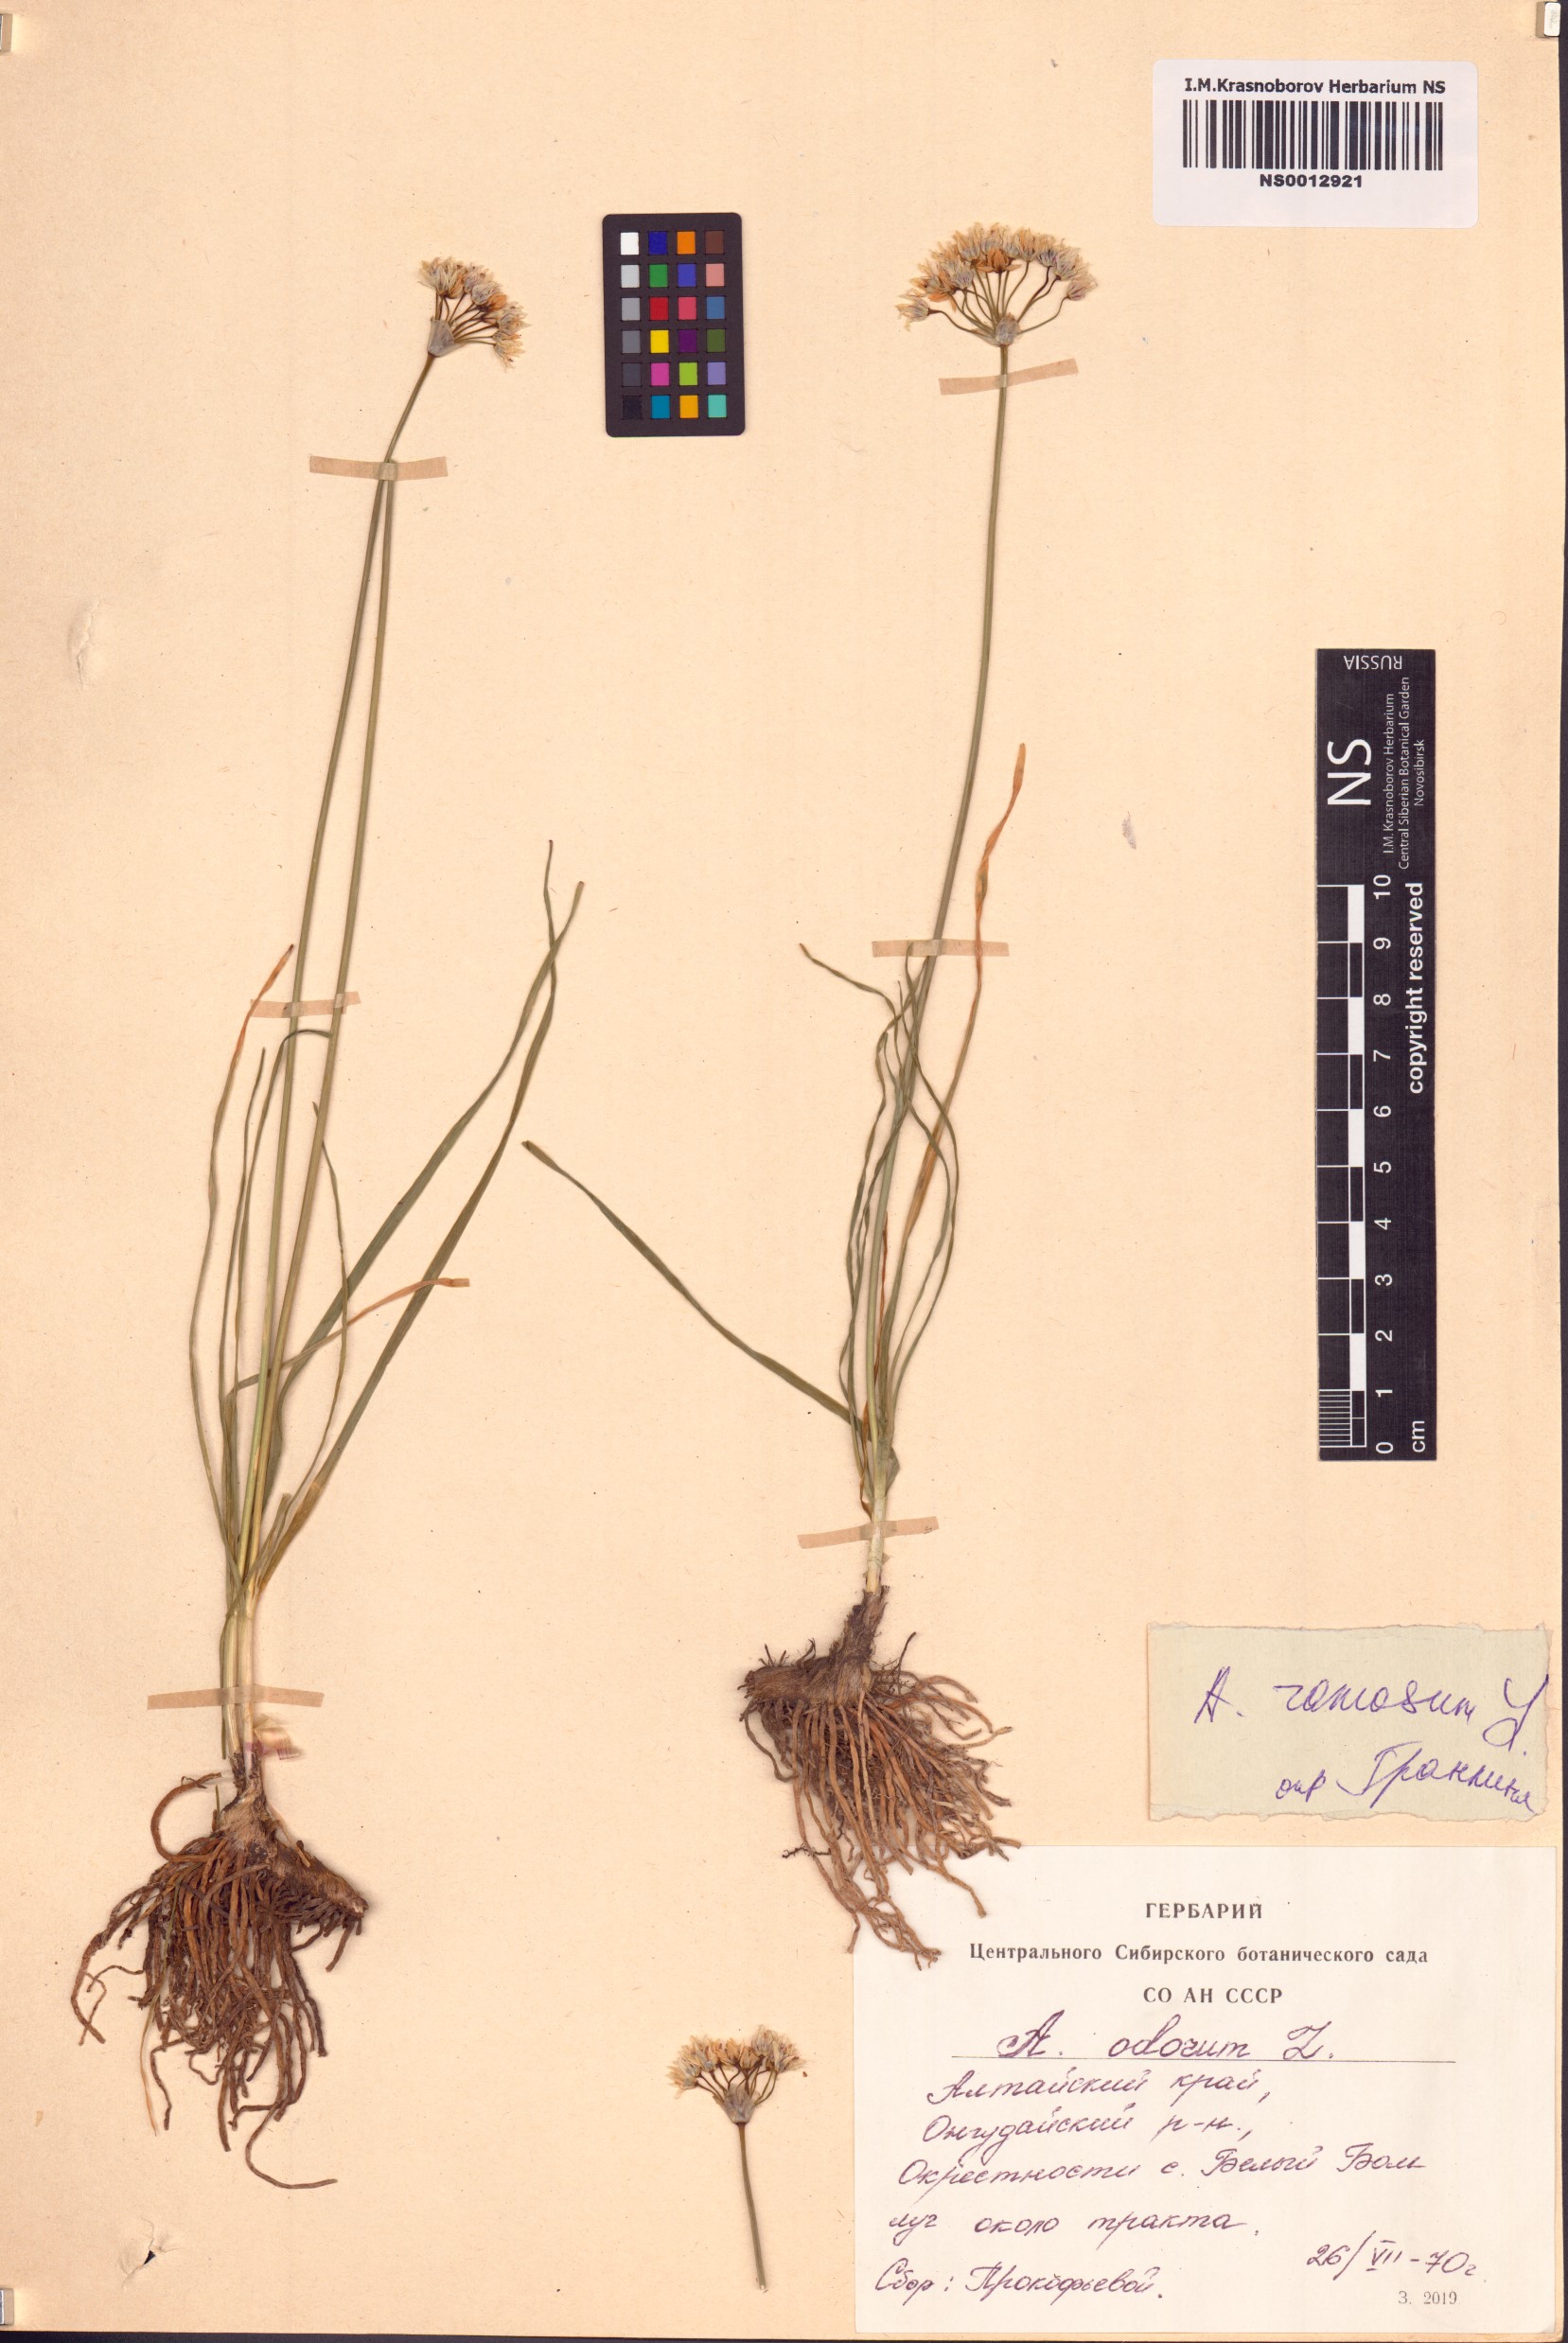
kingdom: Plantae
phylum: Tracheophyta
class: Liliopsida
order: Asparagales
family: Amaryllidaceae
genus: Allium
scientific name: Allium ramosum
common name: Fragrant garlic
